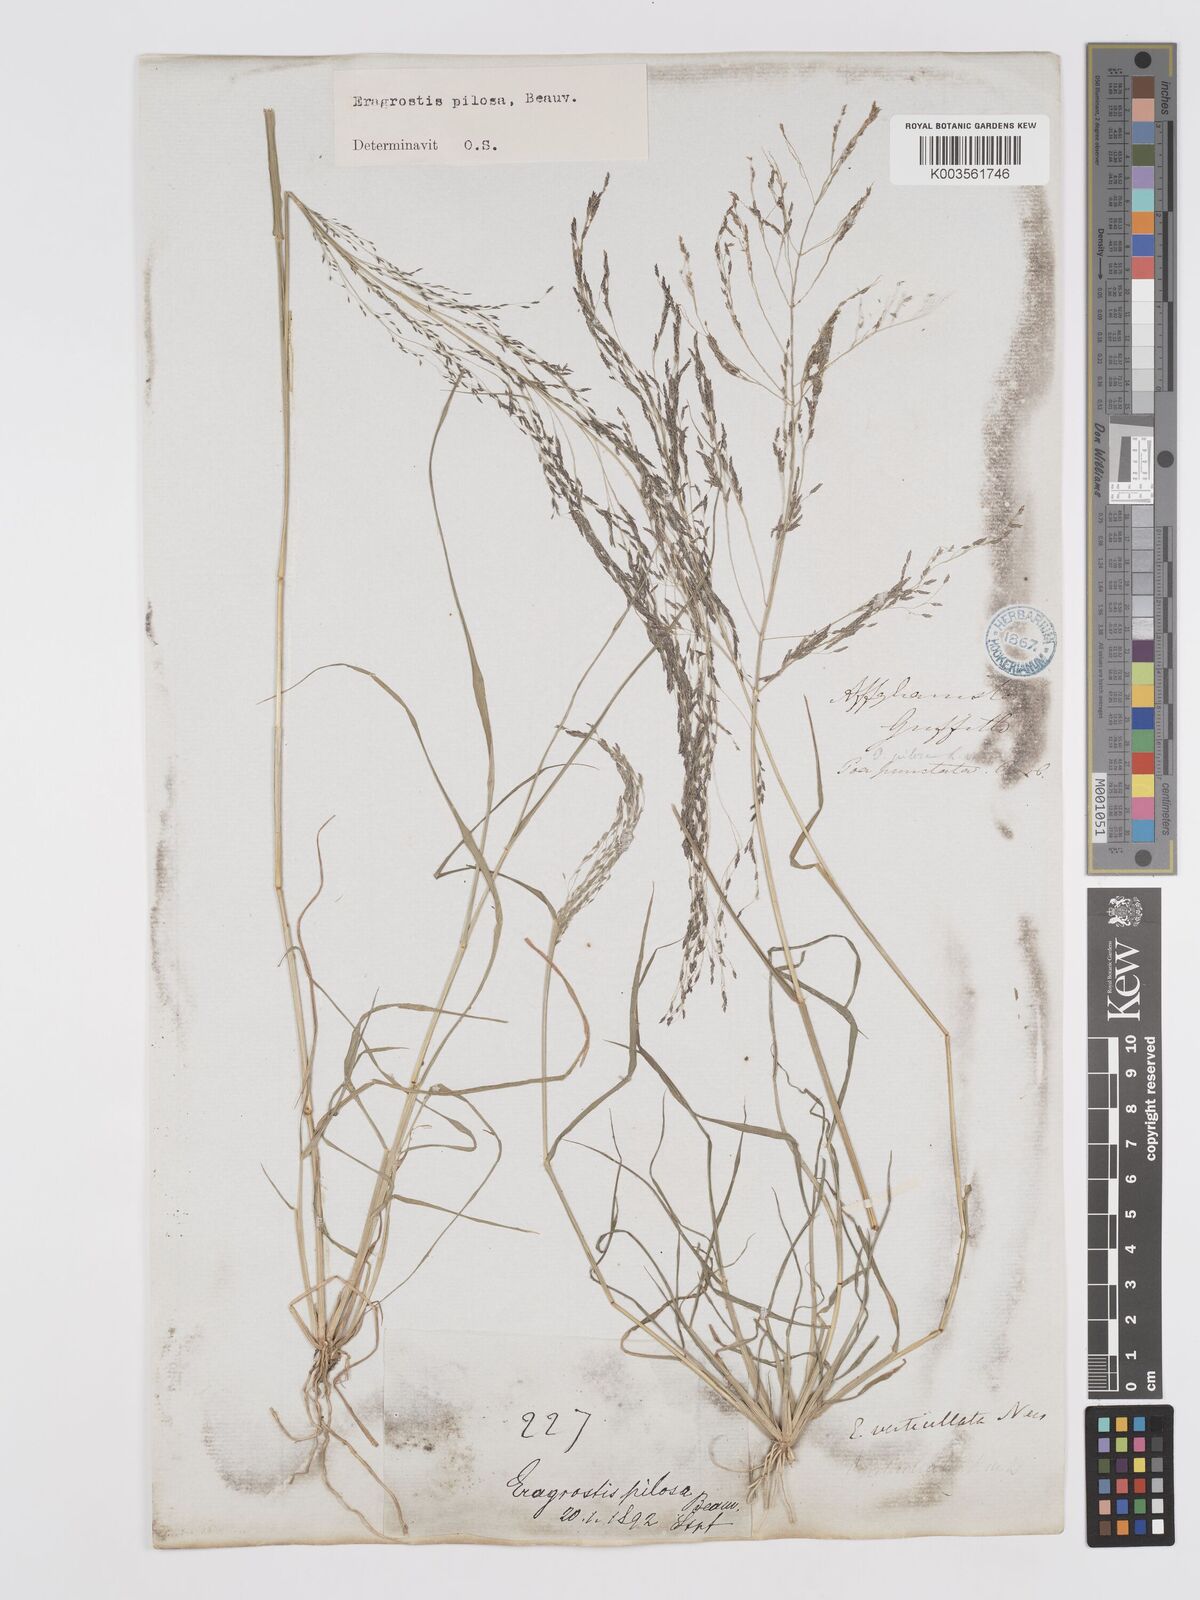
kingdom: Plantae
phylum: Tracheophyta
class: Liliopsida
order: Poales
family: Poaceae
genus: Eragrostis
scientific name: Eragrostis pilosa
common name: Indian lovegrass
